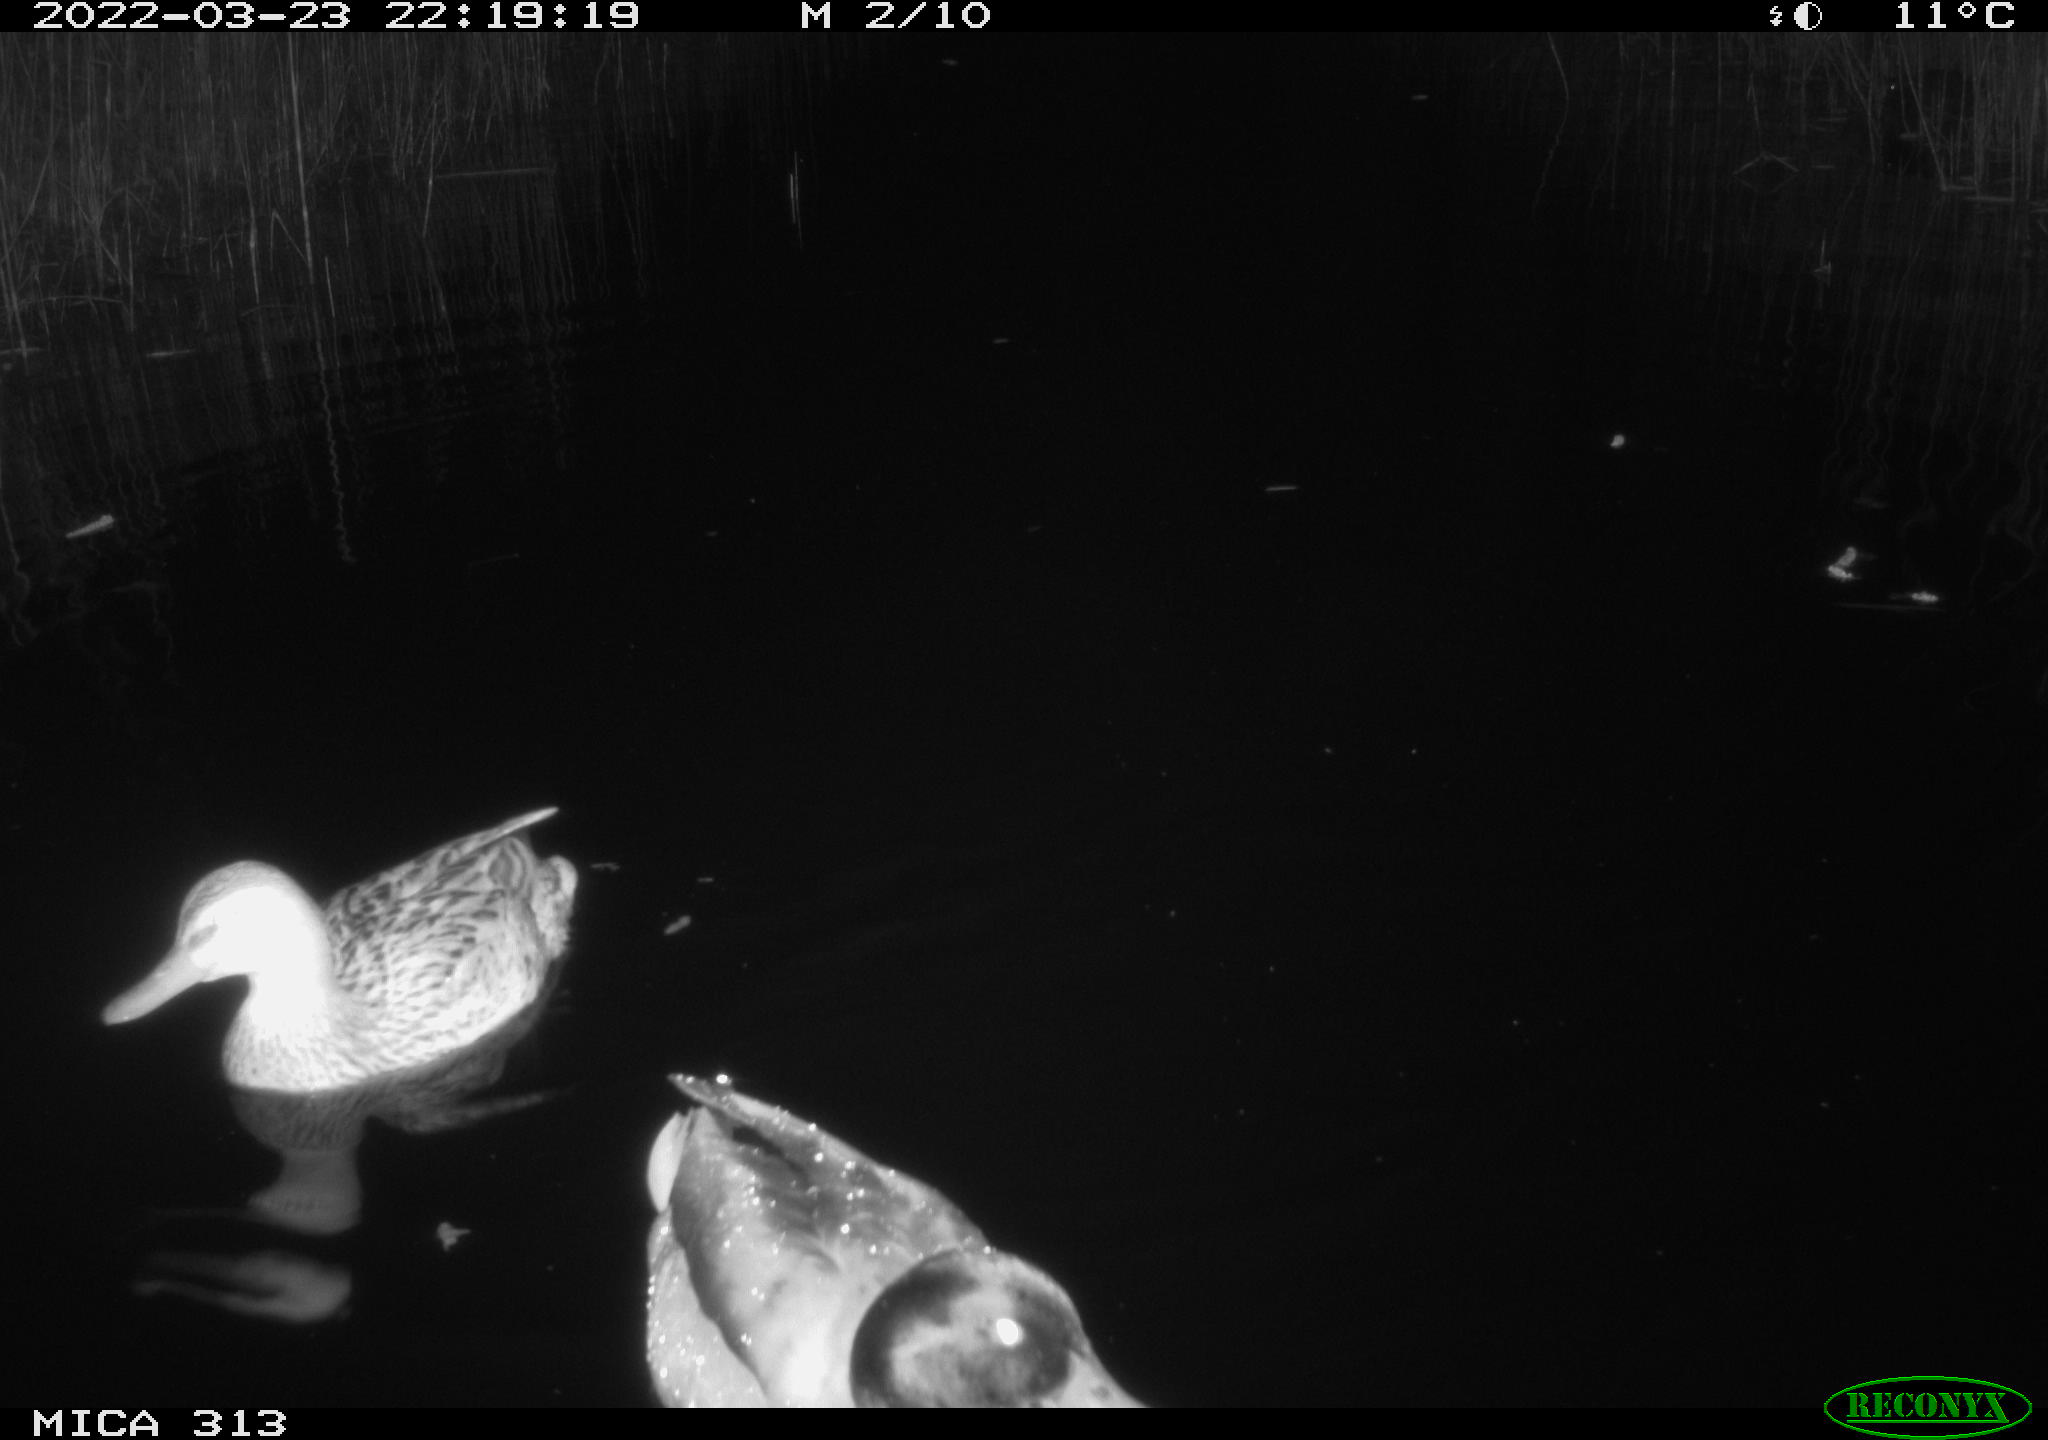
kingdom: Animalia
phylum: Chordata
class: Aves
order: Anseriformes
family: Anatidae
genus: Anas
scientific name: Anas platyrhynchos
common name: Mallard
